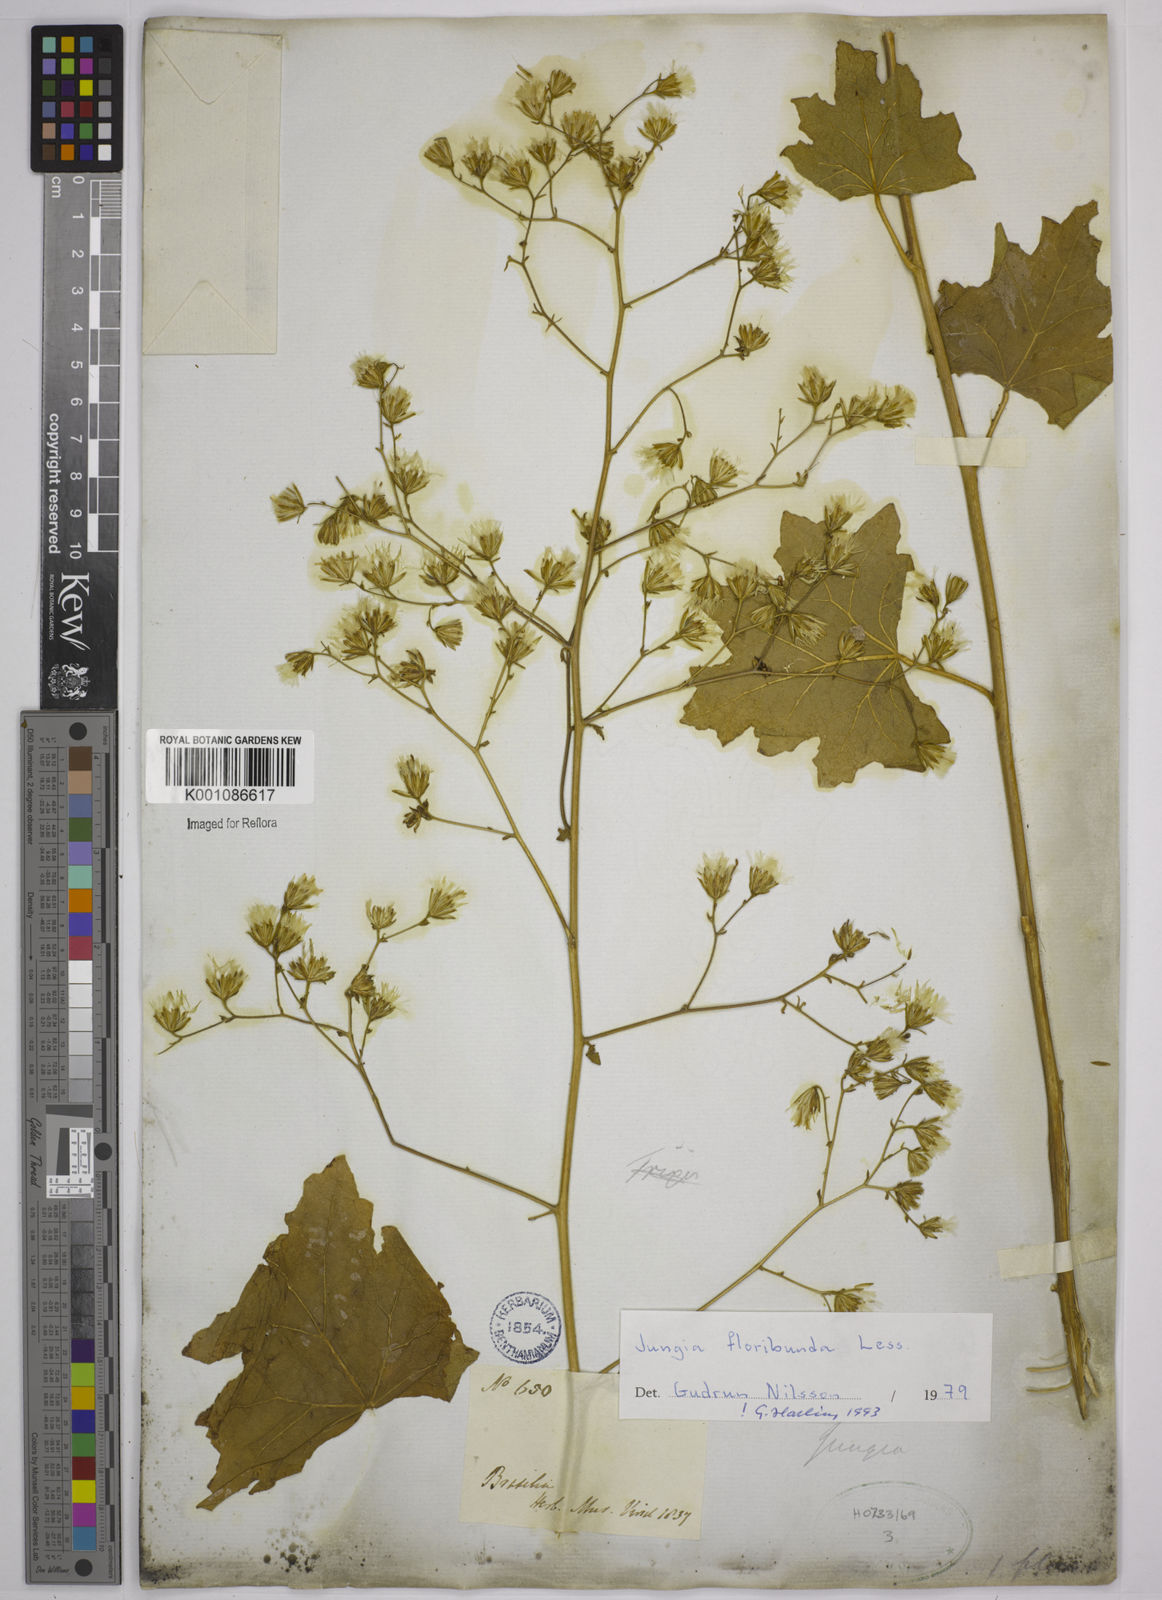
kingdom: Plantae
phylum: Tracheophyta
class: Magnoliopsida
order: Asterales
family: Asteraceae
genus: Jungia
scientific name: Jungia floribunda
